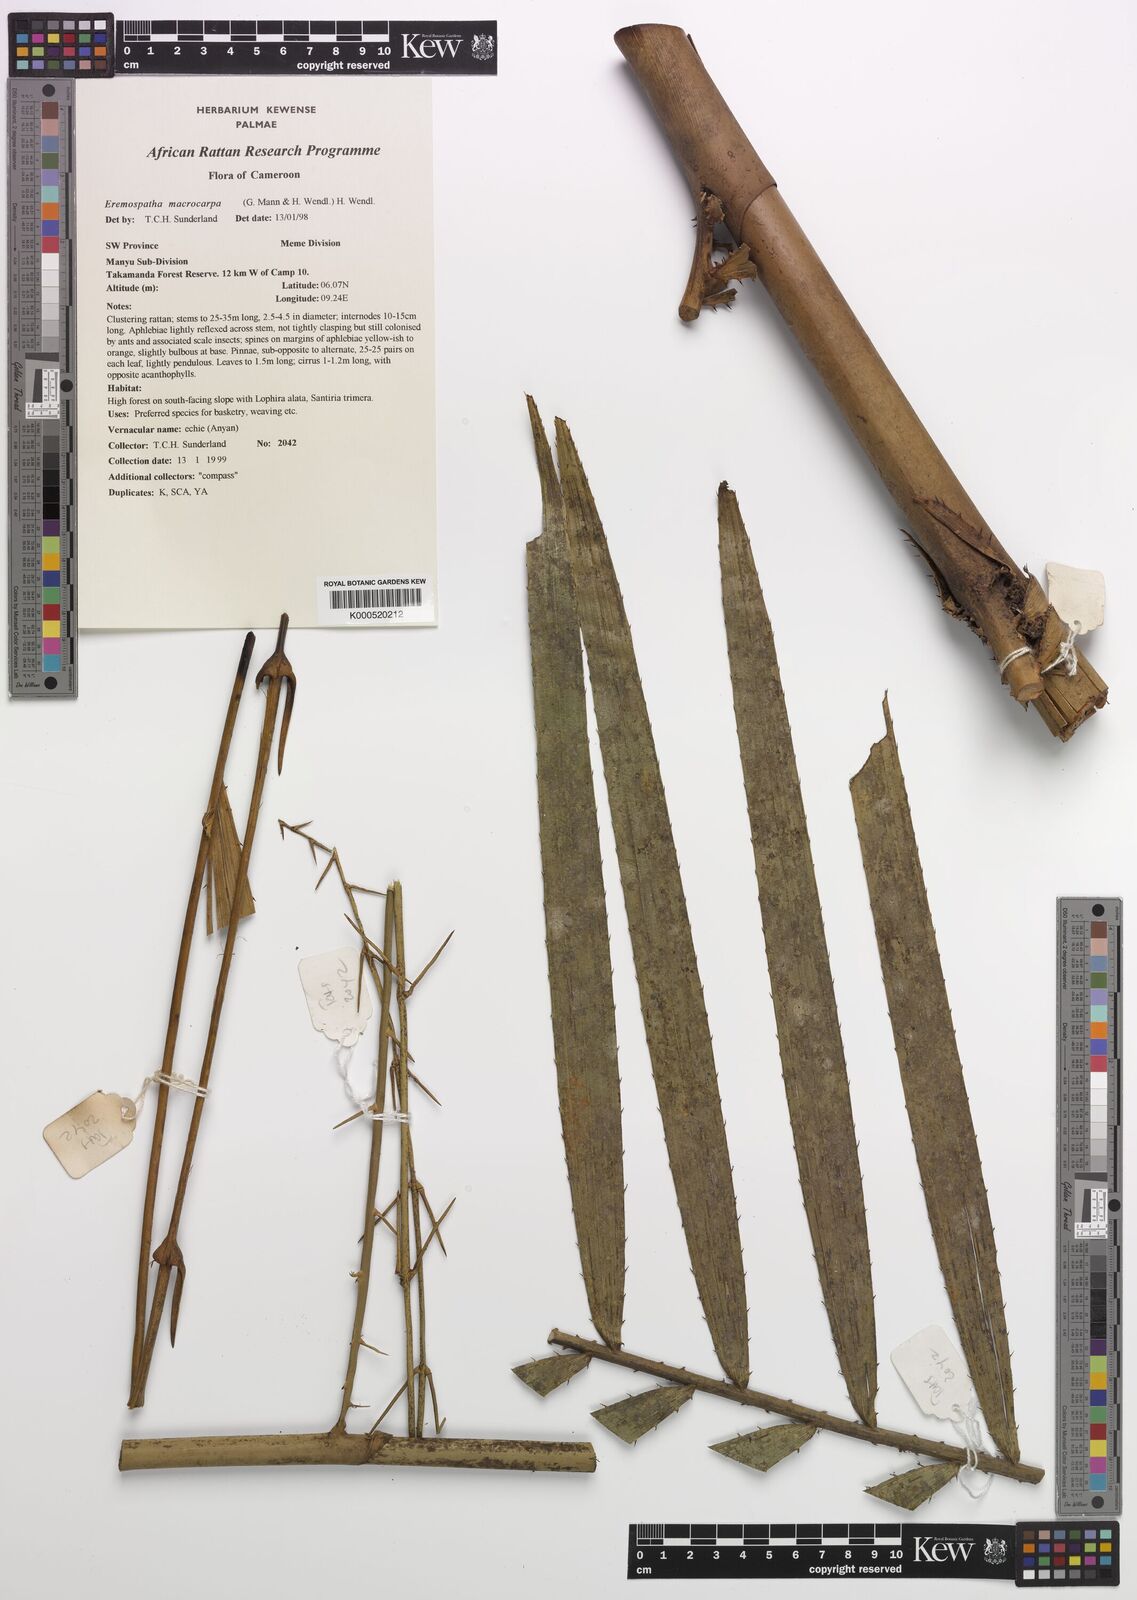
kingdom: Plantae
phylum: Tracheophyta
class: Liliopsida
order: Arecales
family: Arecaceae
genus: Eremospatha
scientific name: Eremospatha
